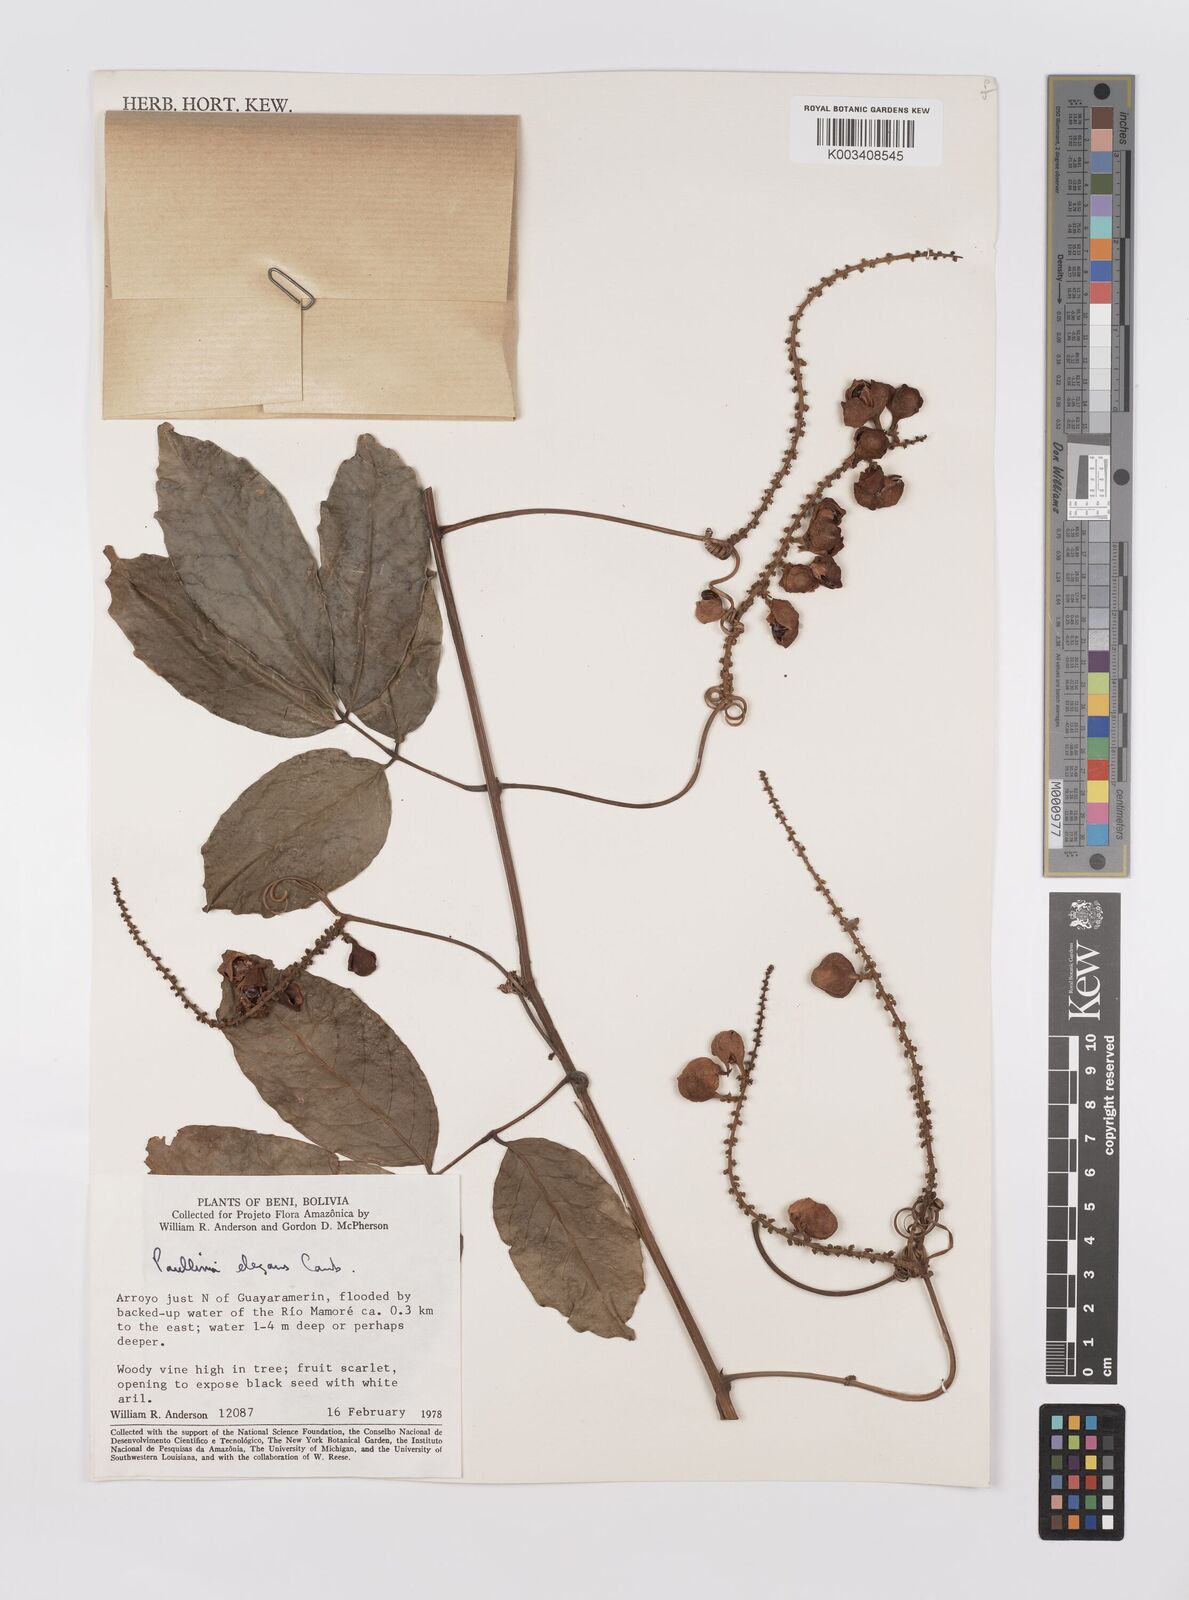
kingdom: Plantae
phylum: Tracheophyta
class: Magnoliopsida
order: Sapindales
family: Sapindaceae
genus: Paullinia
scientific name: Paullinia elegans
